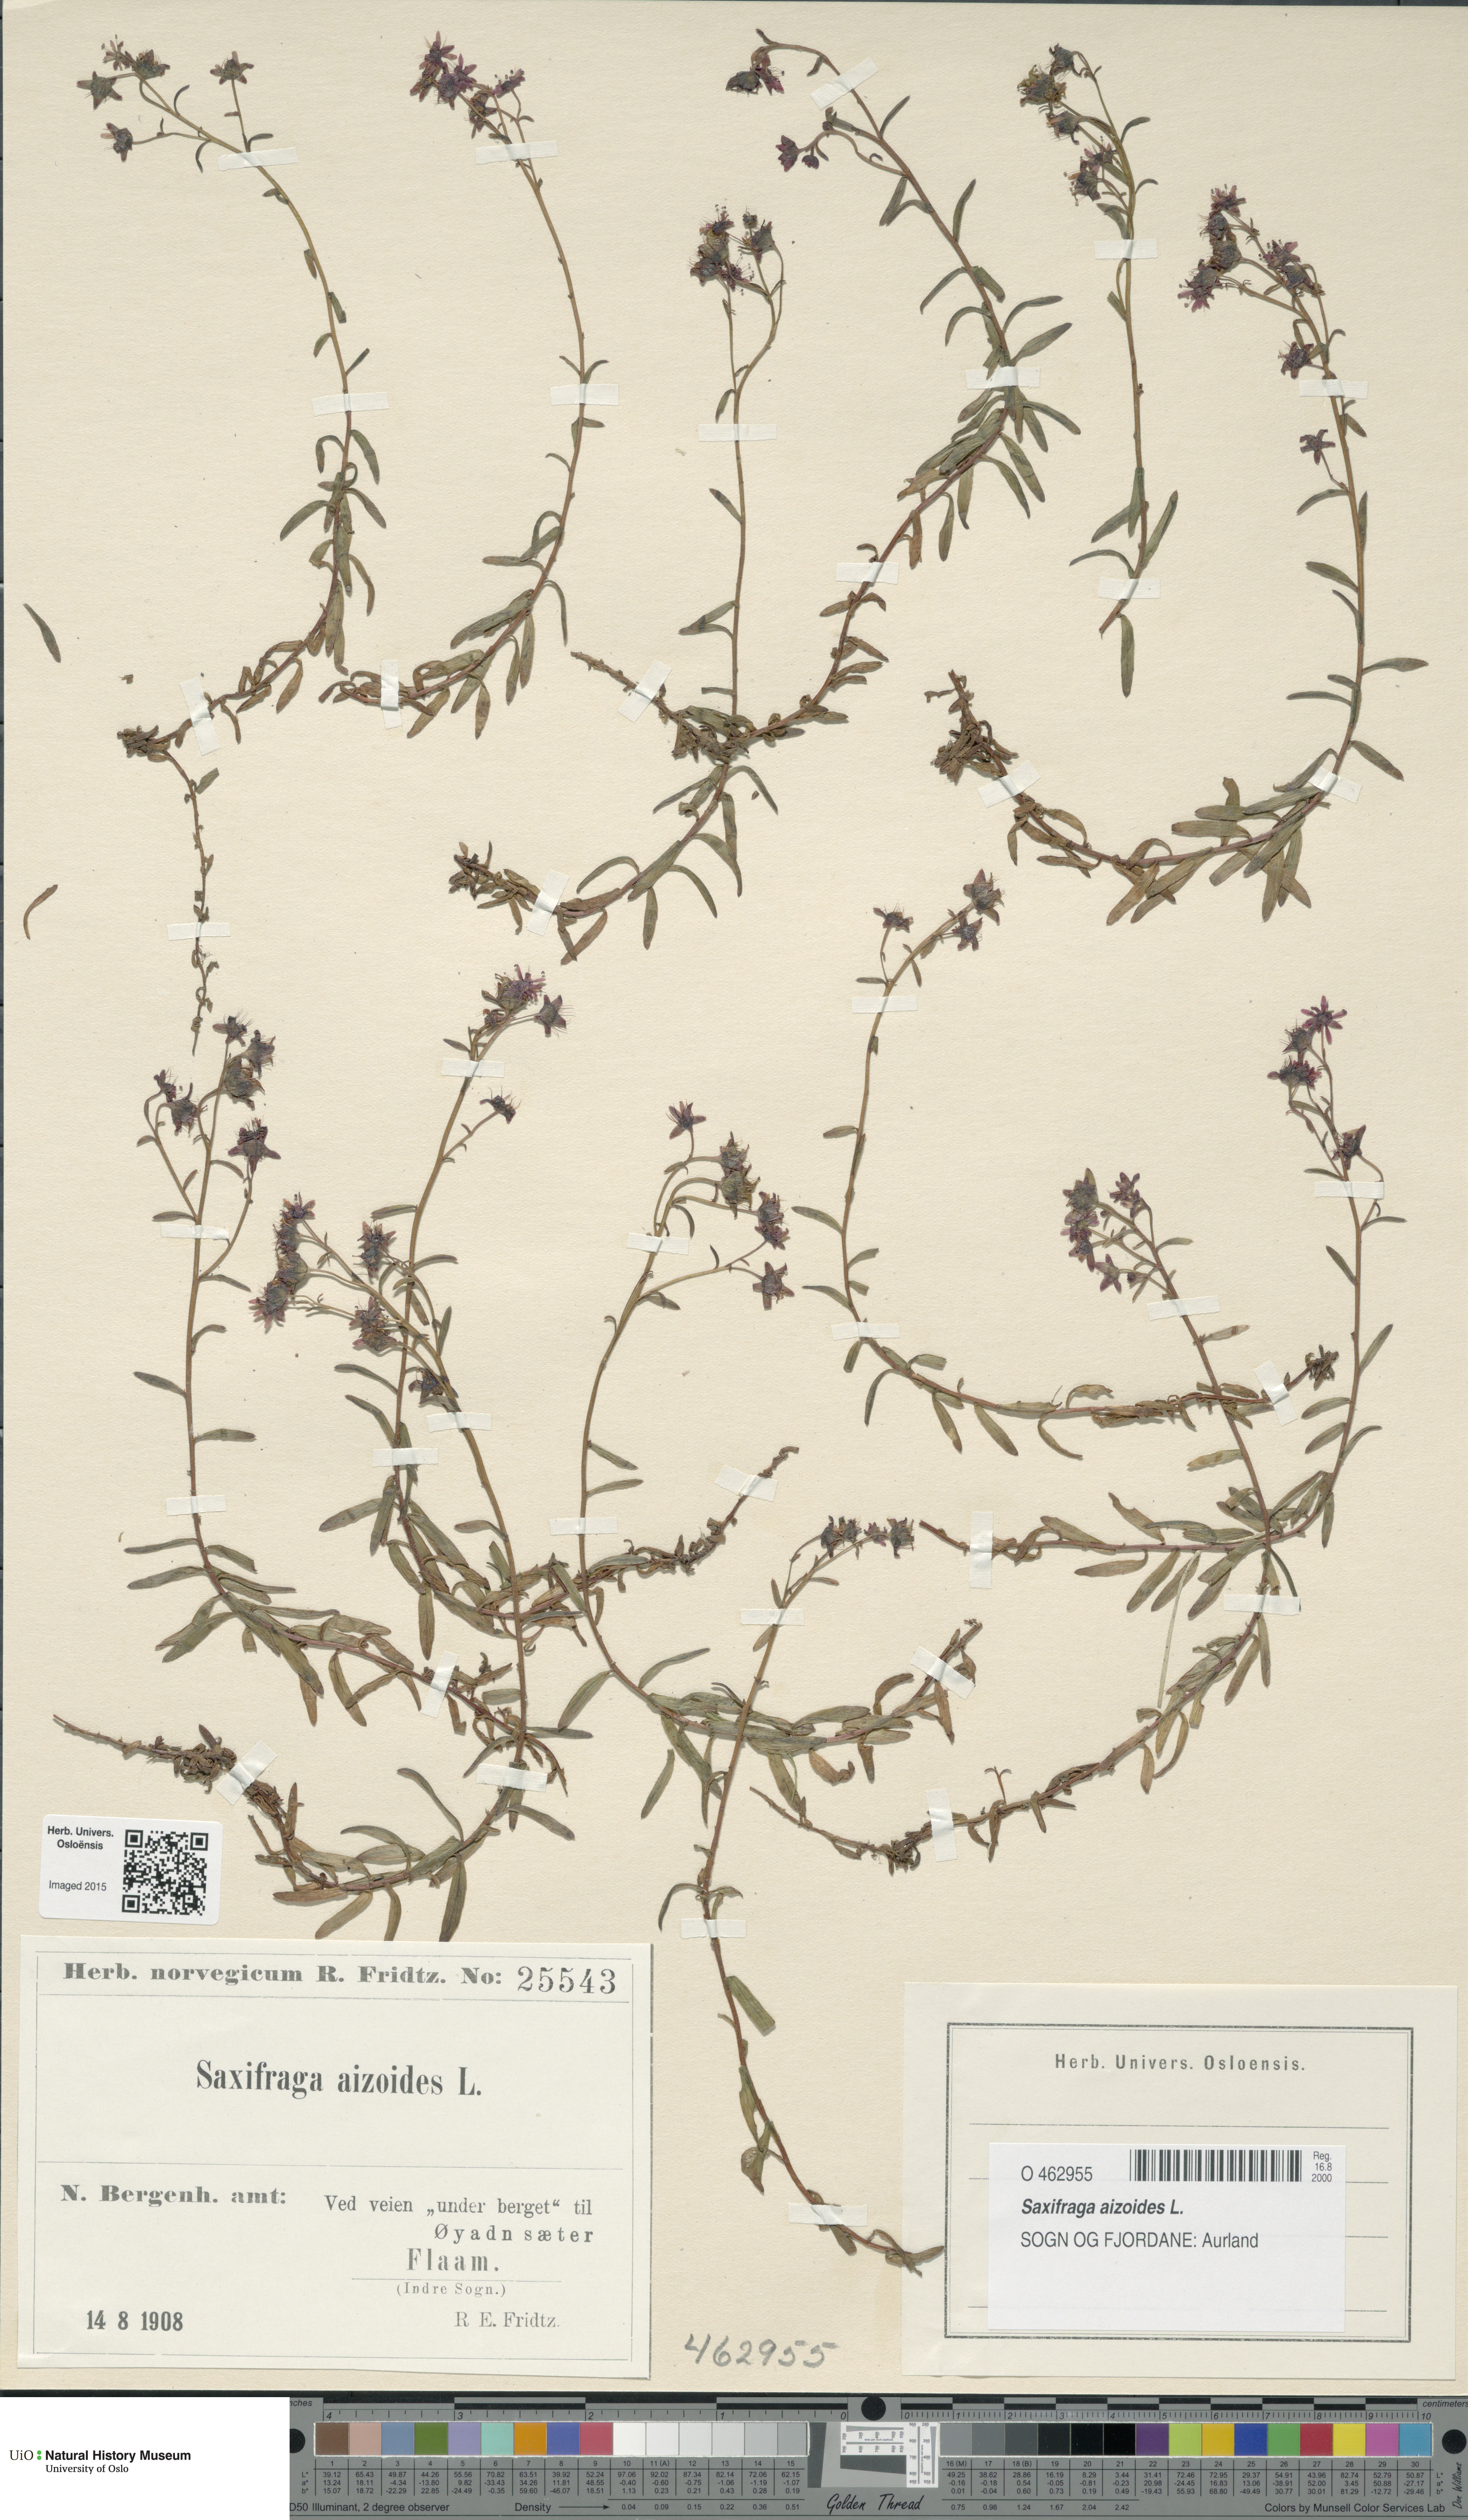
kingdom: Plantae
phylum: Tracheophyta
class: Magnoliopsida
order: Saxifragales
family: Saxifragaceae
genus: Saxifraga
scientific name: Saxifraga aizoides
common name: Yellow mountain saxifrage
